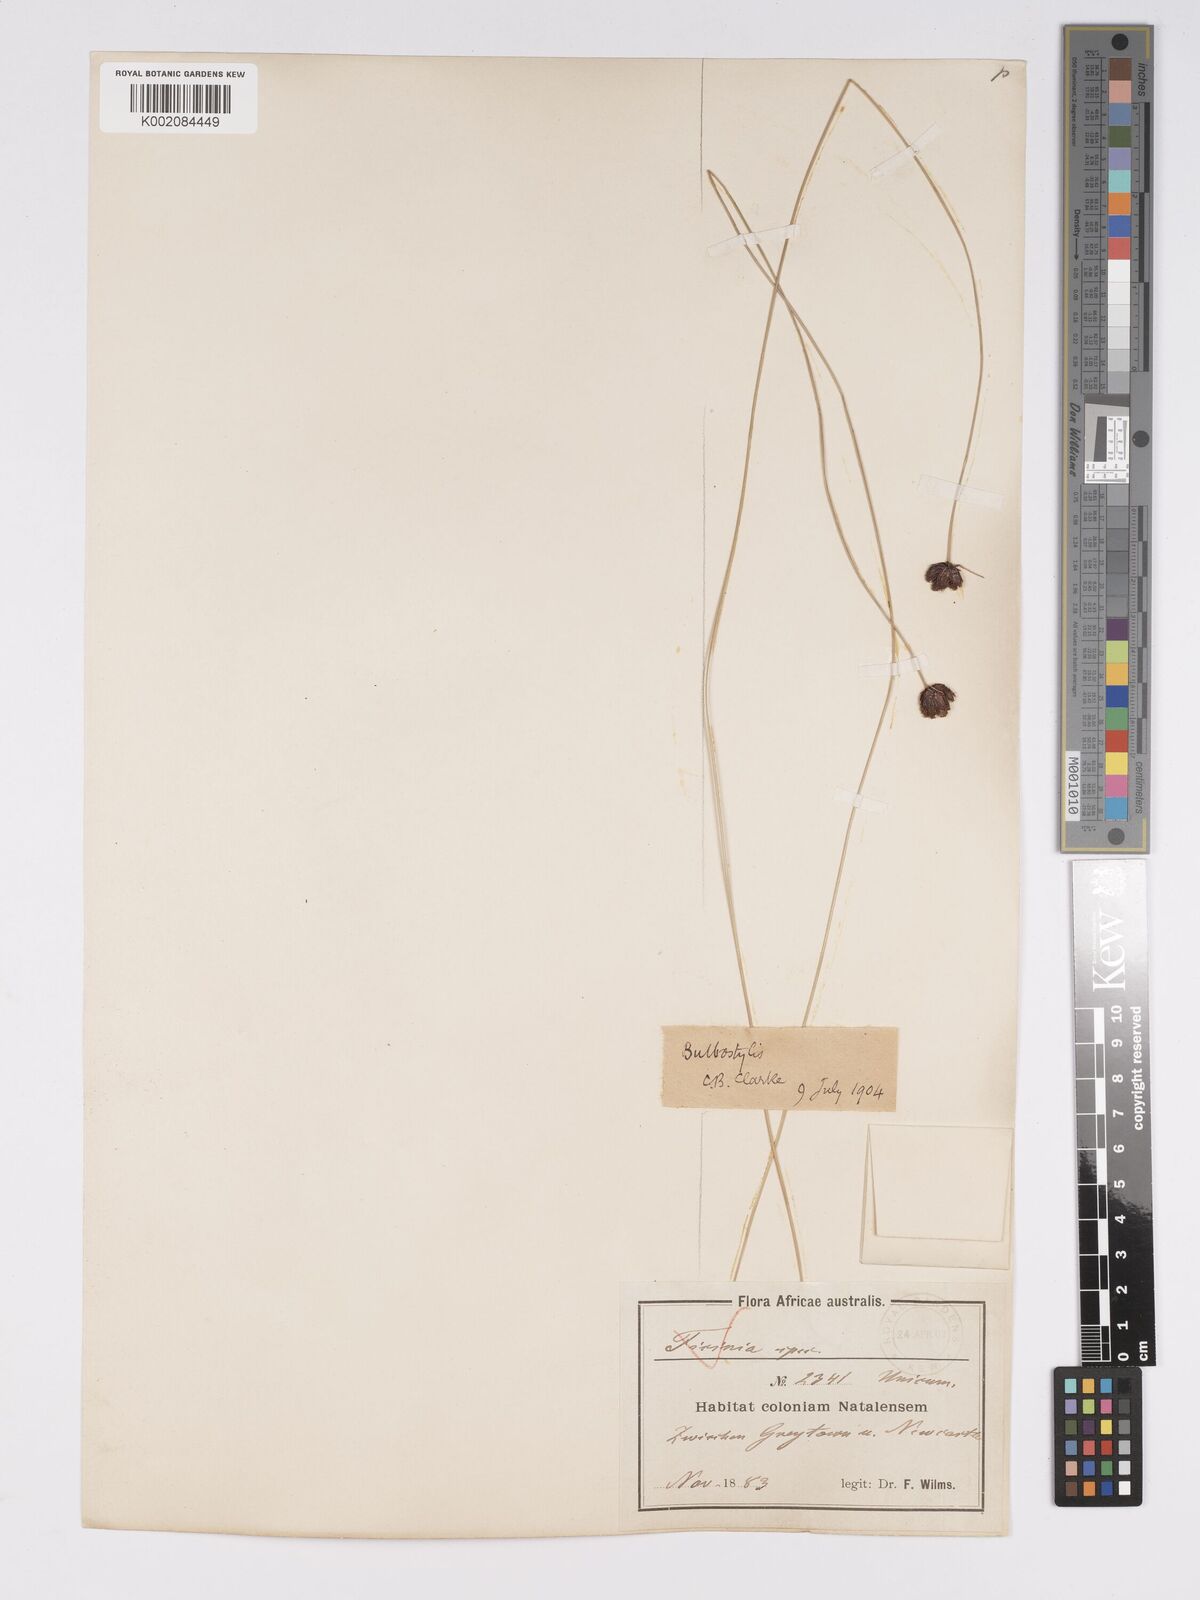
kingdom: Plantae
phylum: Tracheophyta
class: Liliopsida
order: Poales
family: Cyperaceae
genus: Bulbostylis
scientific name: Bulbostylis schoenoides
